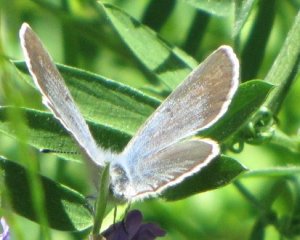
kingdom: Animalia
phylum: Arthropoda
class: Insecta
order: Lepidoptera
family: Lycaenidae
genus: Glaucopsyche
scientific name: Glaucopsyche lygdamus
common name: Silvery Blue
